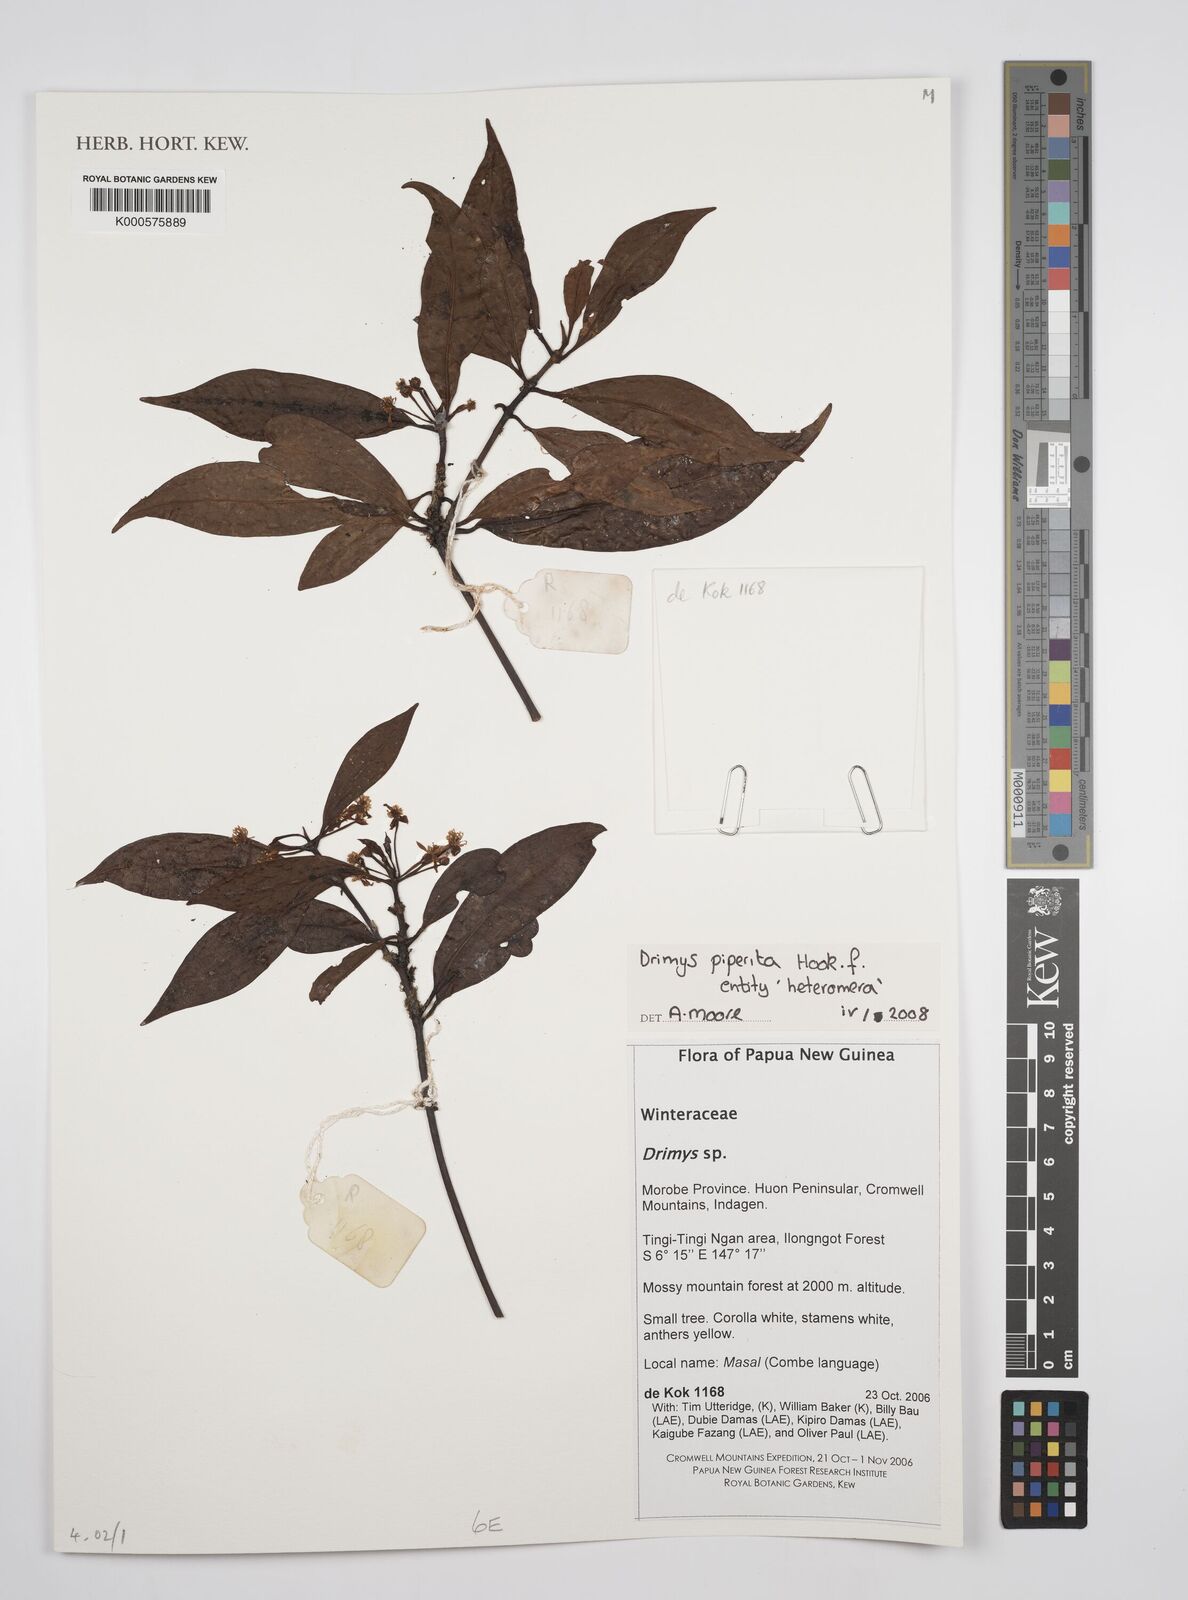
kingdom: Plantae
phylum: Tracheophyta
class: Magnoliopsida
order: Canellales
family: Winteraceae
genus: Drimys
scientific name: Drimys piperita
